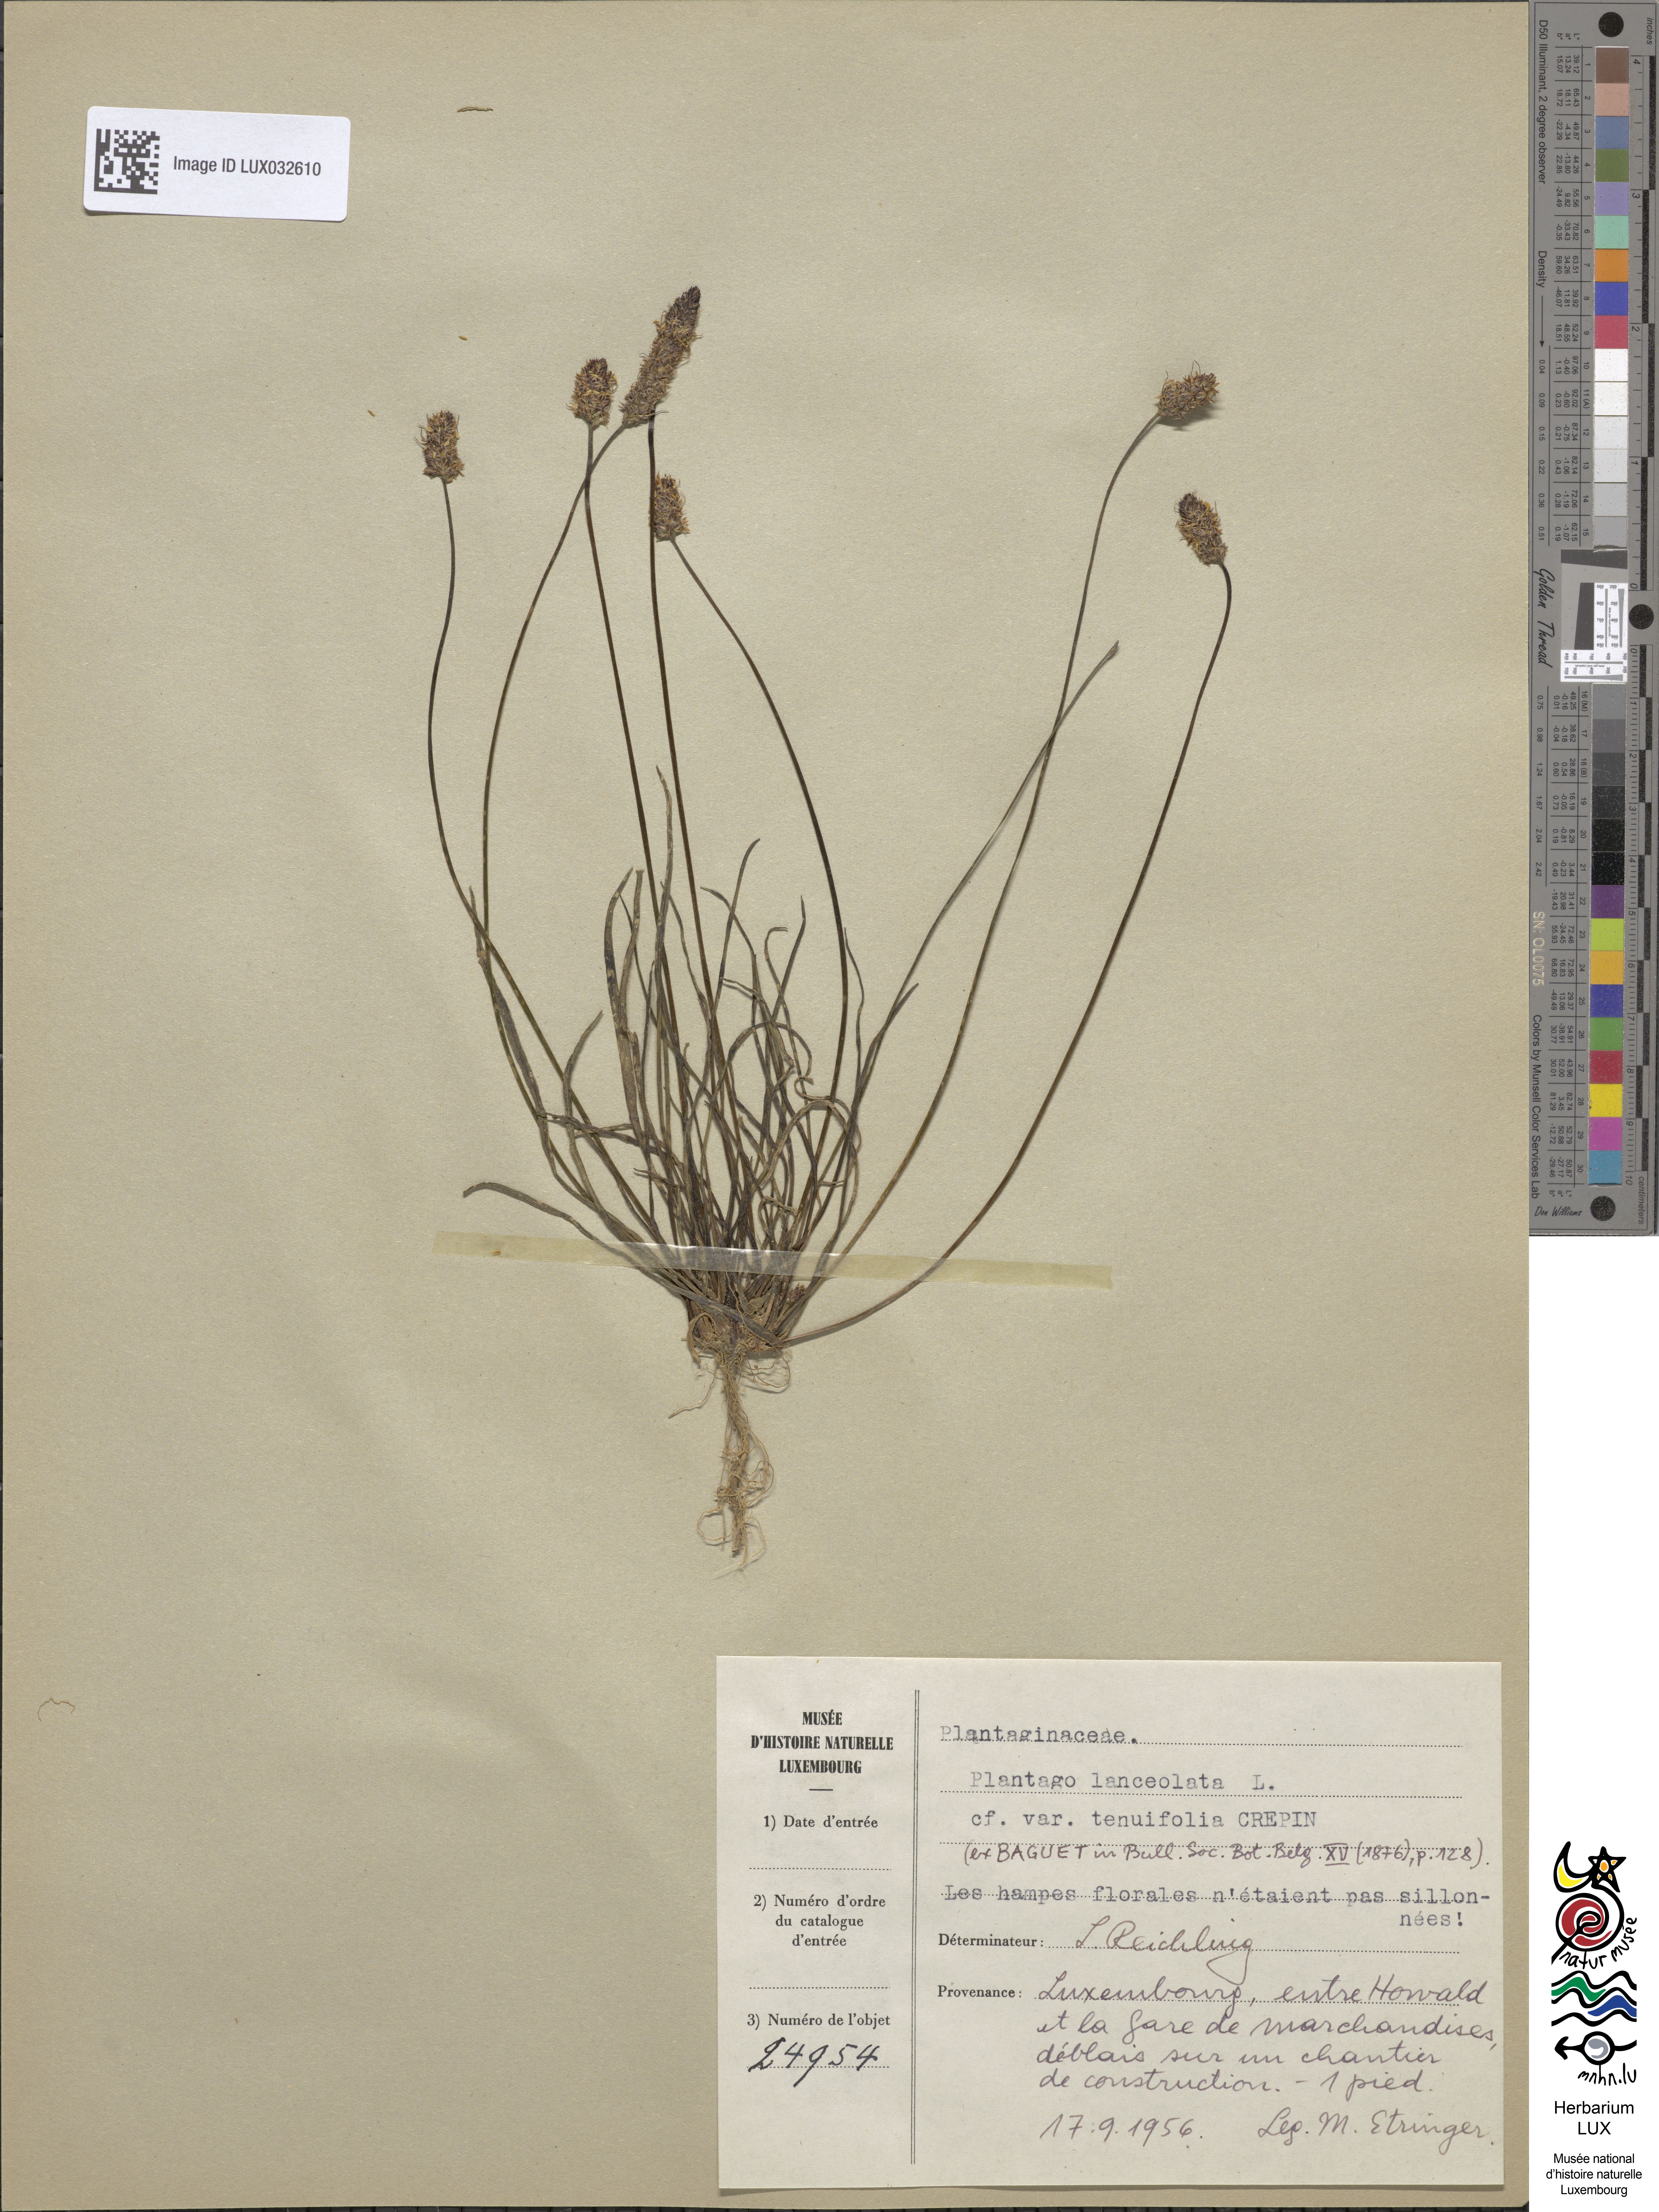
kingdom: Plantae
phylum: Tracheophyta
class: Magnoliopsida
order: Lamiales
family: Plantaginaceae
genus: Plantago
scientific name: Plantago lanceolata
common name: Ribwort plantain
